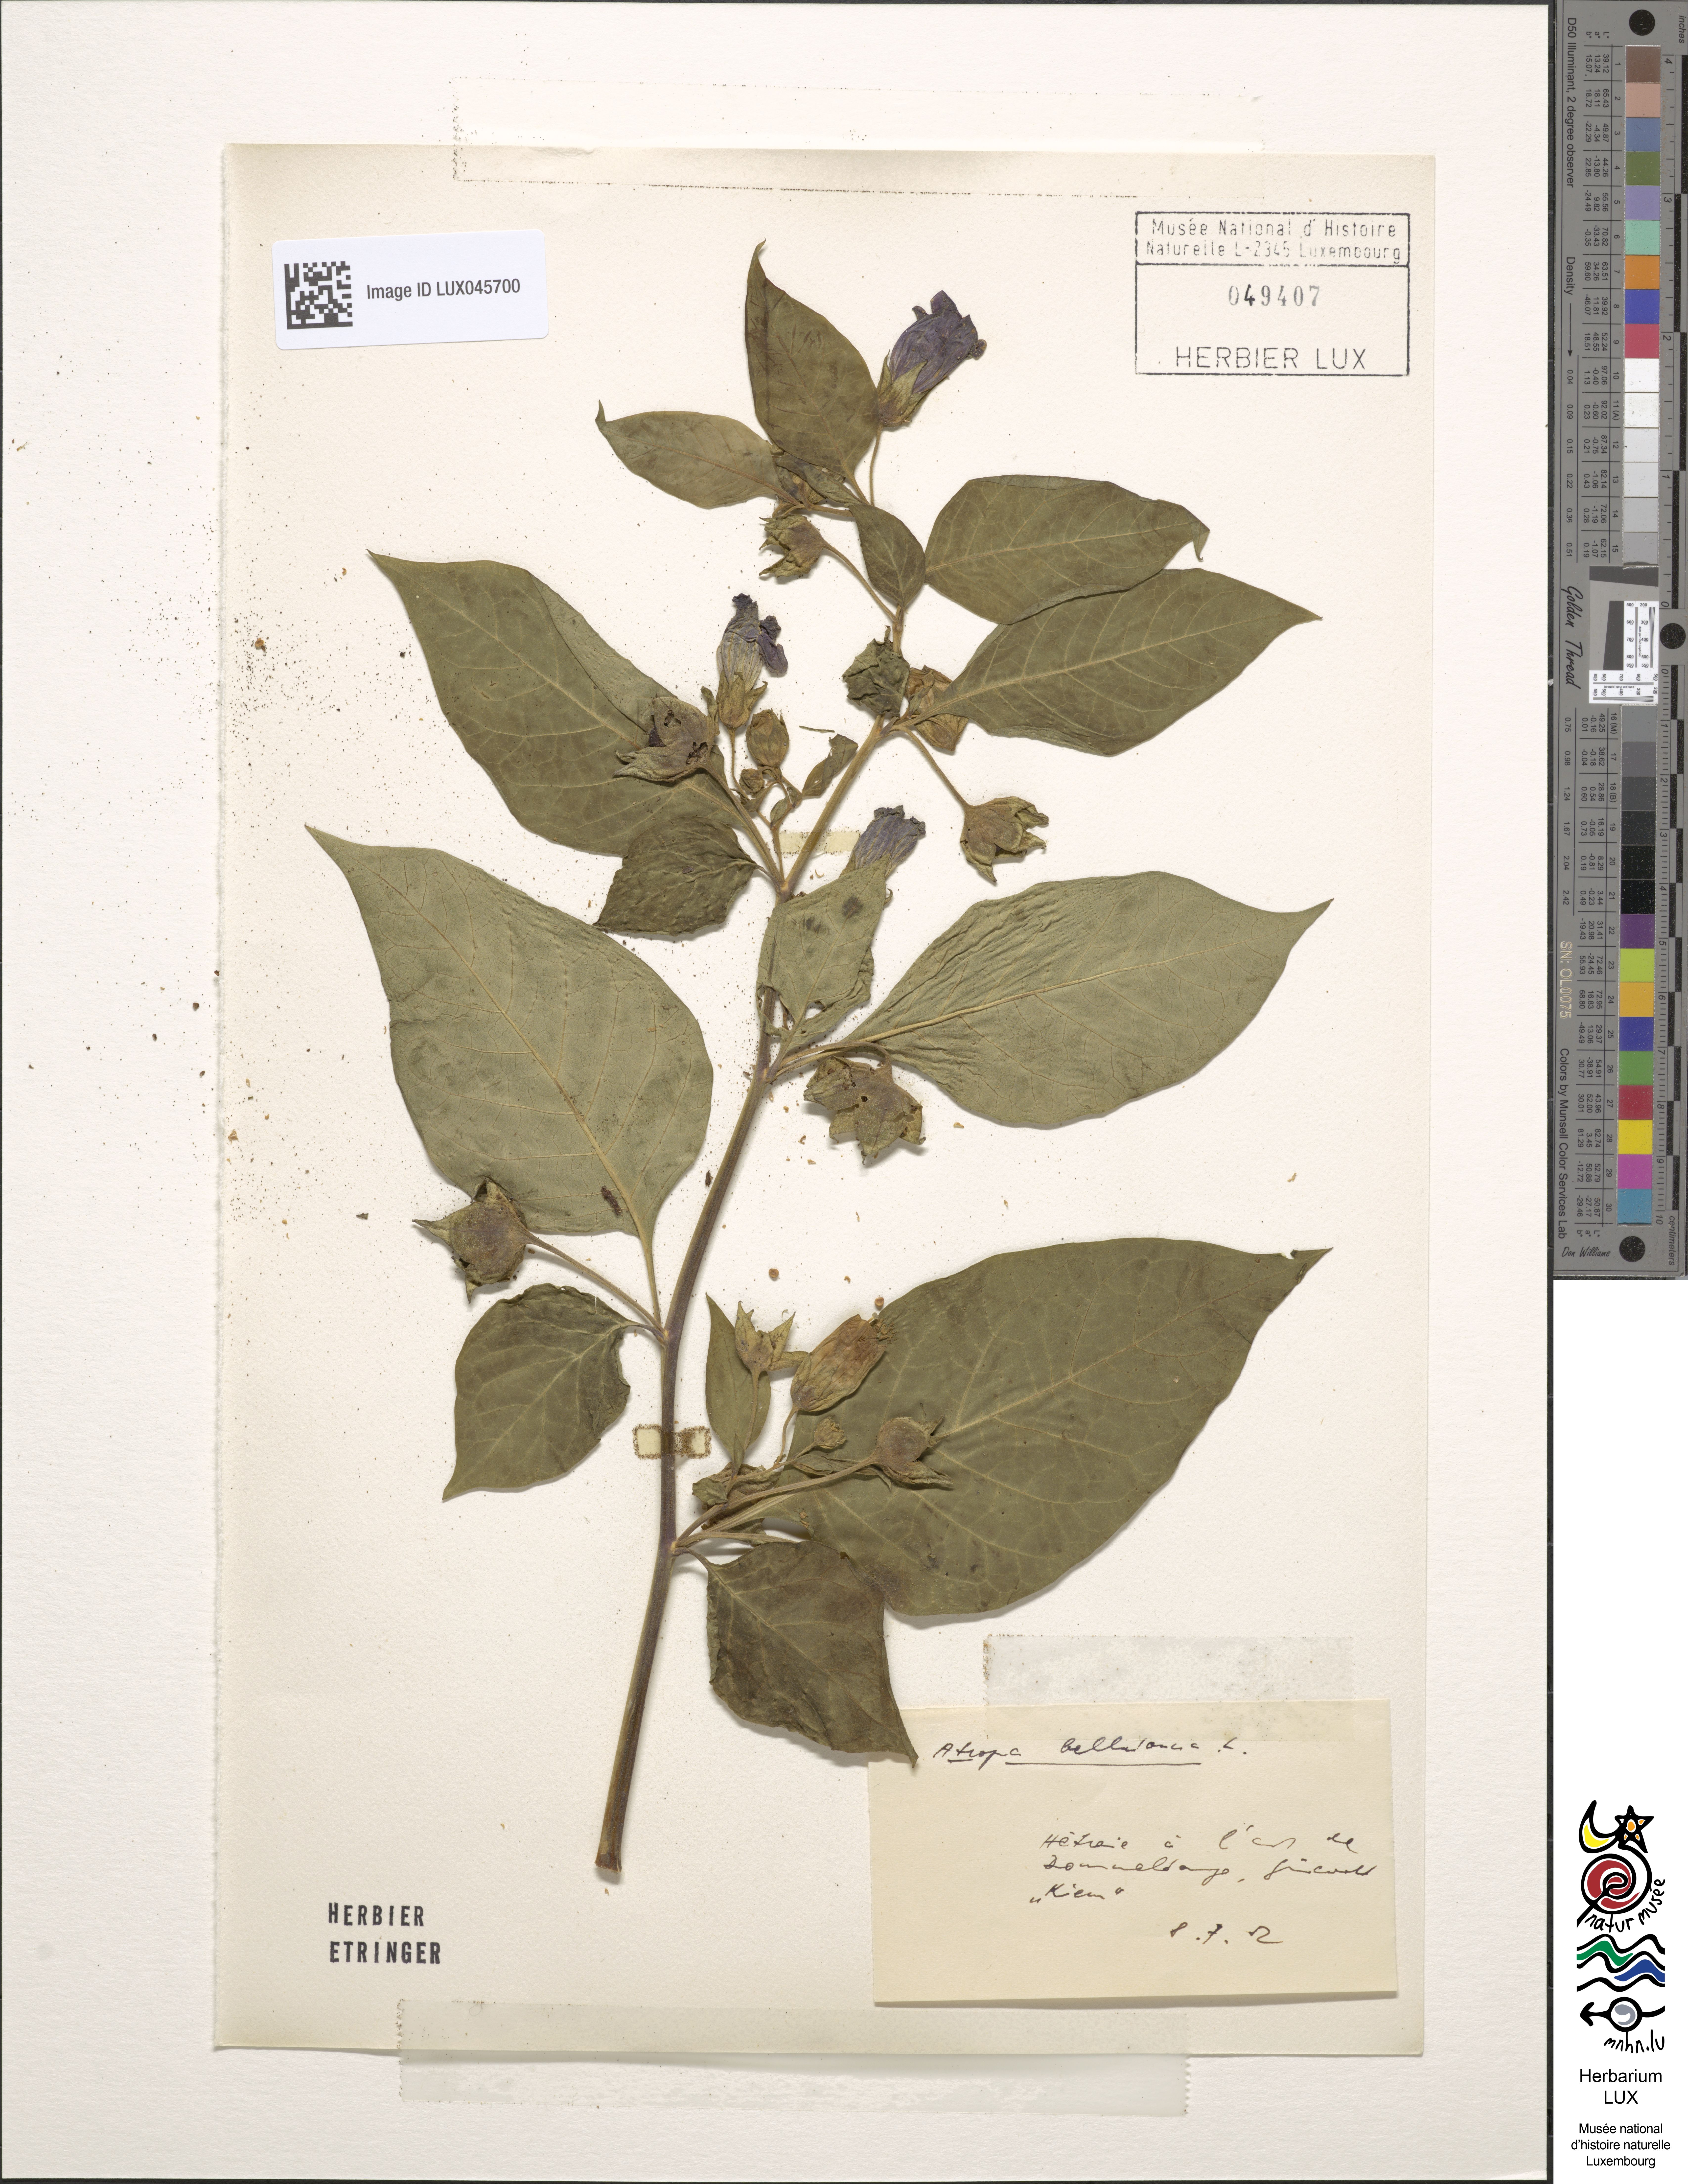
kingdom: Plantae
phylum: Tracheophyta
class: Magnoliopsida
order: Solanales
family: Solanaceae
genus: Atropa
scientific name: Atropa belladonna
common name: Deadly nightshade
